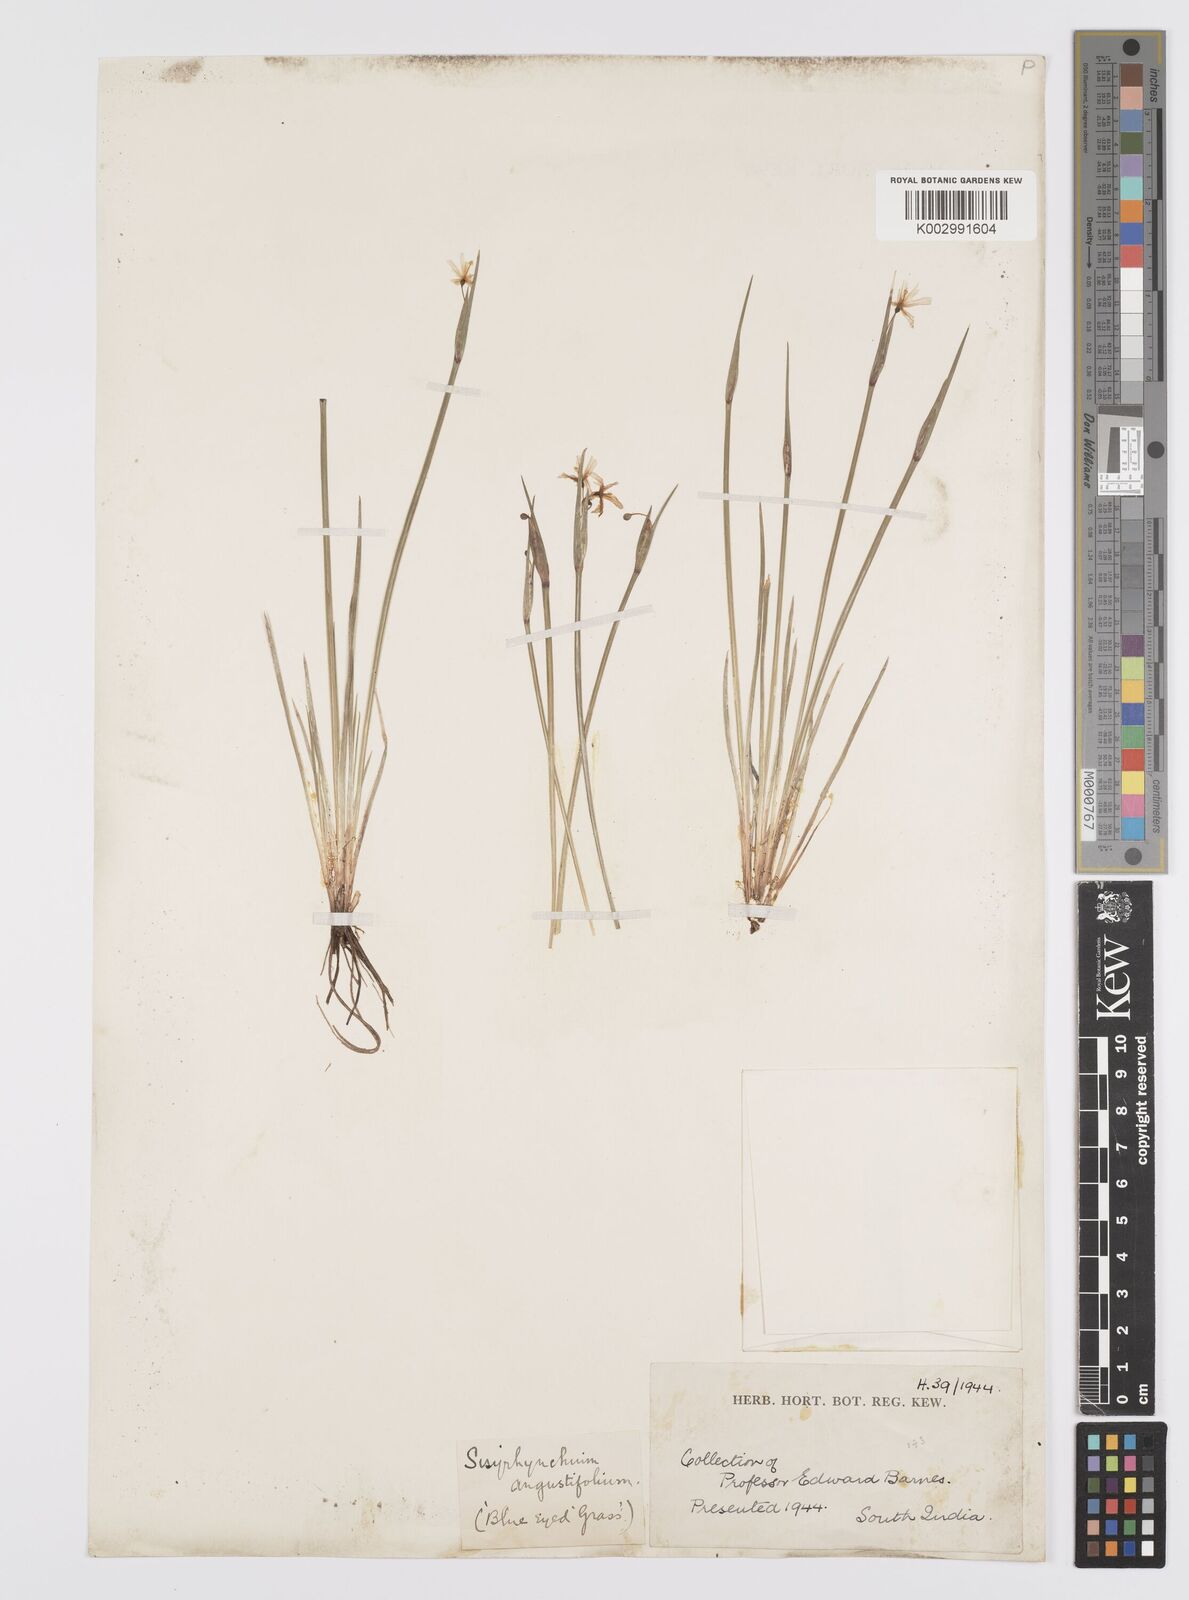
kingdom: Plantae
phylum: Tracheophyta
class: Liliopsida
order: Asparagales
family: Iridaceae
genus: Sisyrinchium
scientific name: Sisyrinchium
